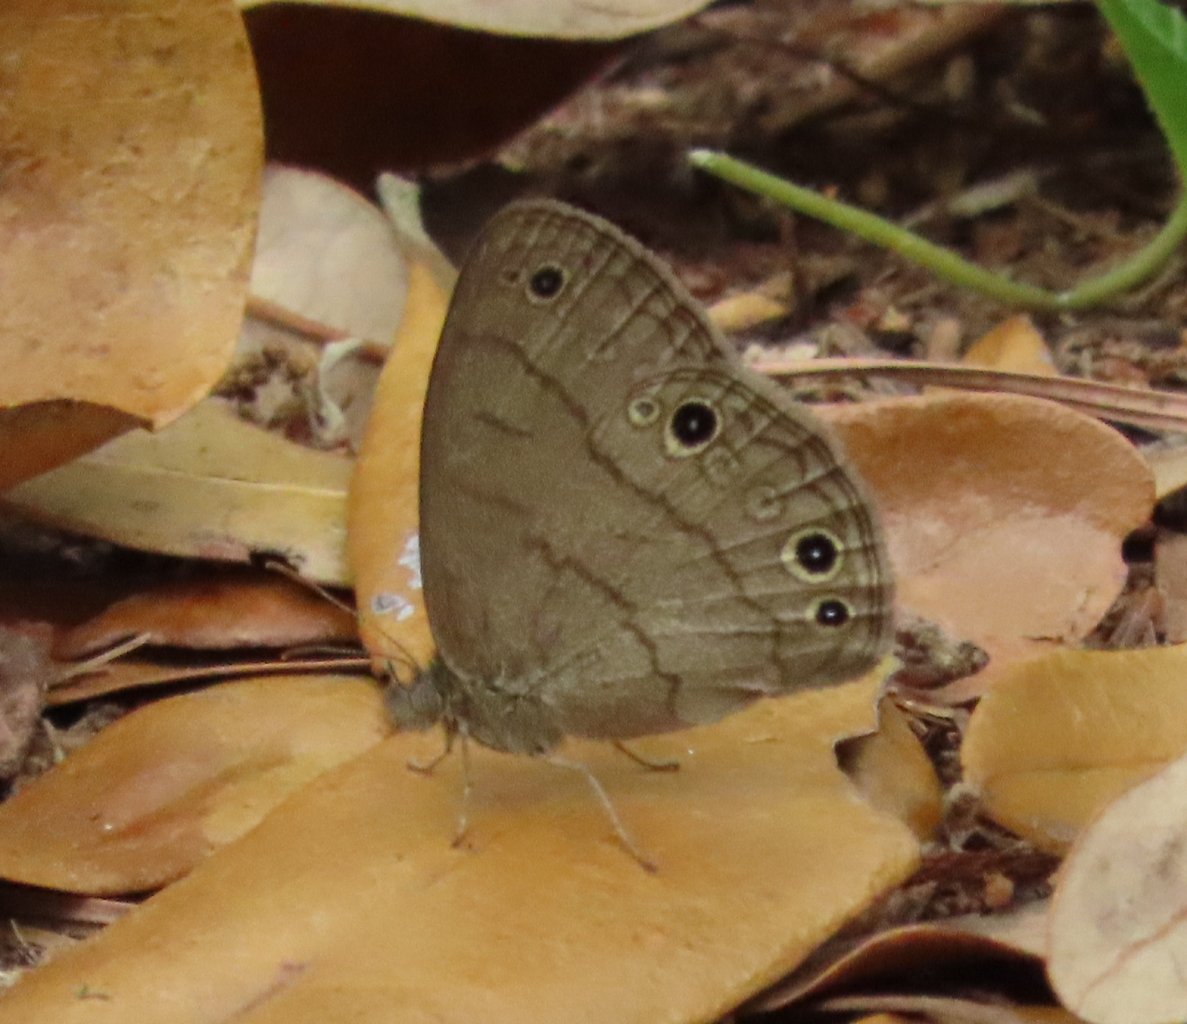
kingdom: Animalia
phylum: Arthropoda
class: Insecta
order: Lepidoptera
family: Nymphalidae
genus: Hermeuptychia
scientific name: Hermeuptychia intricata
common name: Intricate Satyr
